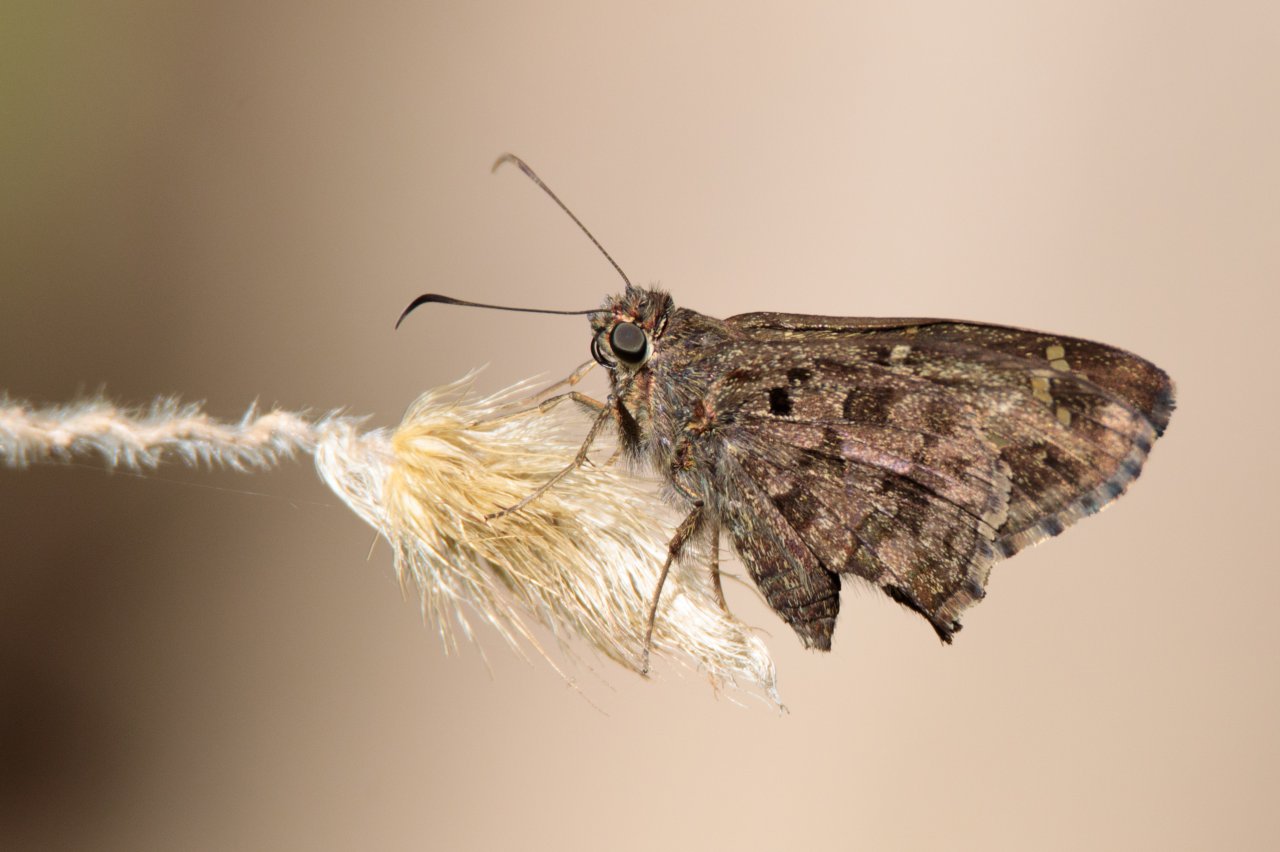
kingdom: Animalia
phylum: Arthropoda
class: Insecta
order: Lepidoptera
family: Hesperiidae
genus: Urbanus
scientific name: Urbanus dorantes
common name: Dorantes Longtail
